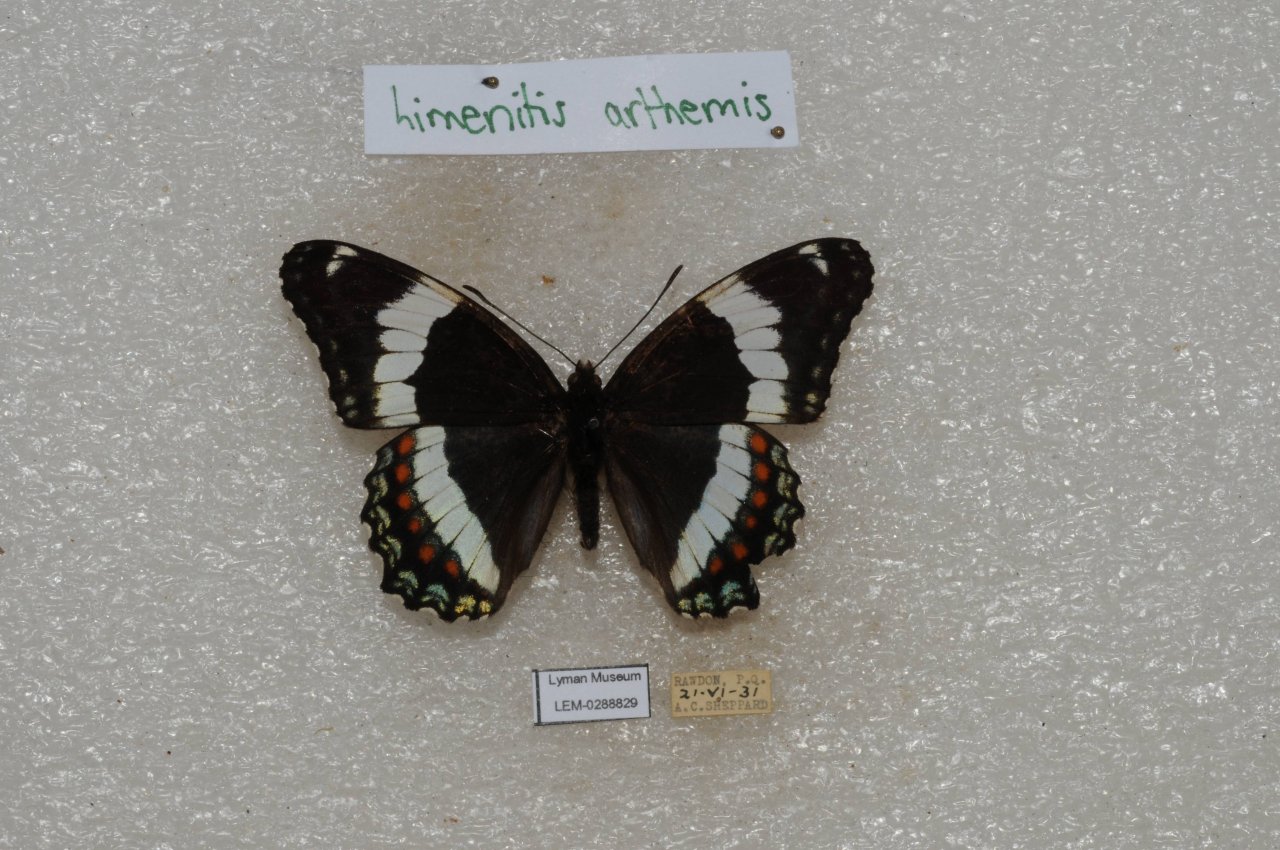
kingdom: Animalia
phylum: Arthropoda
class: Insecta
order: Lepidoptera
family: Nymphalidae
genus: Limenitis
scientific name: Limenitis arthemis
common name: Red-spotted Admiral
